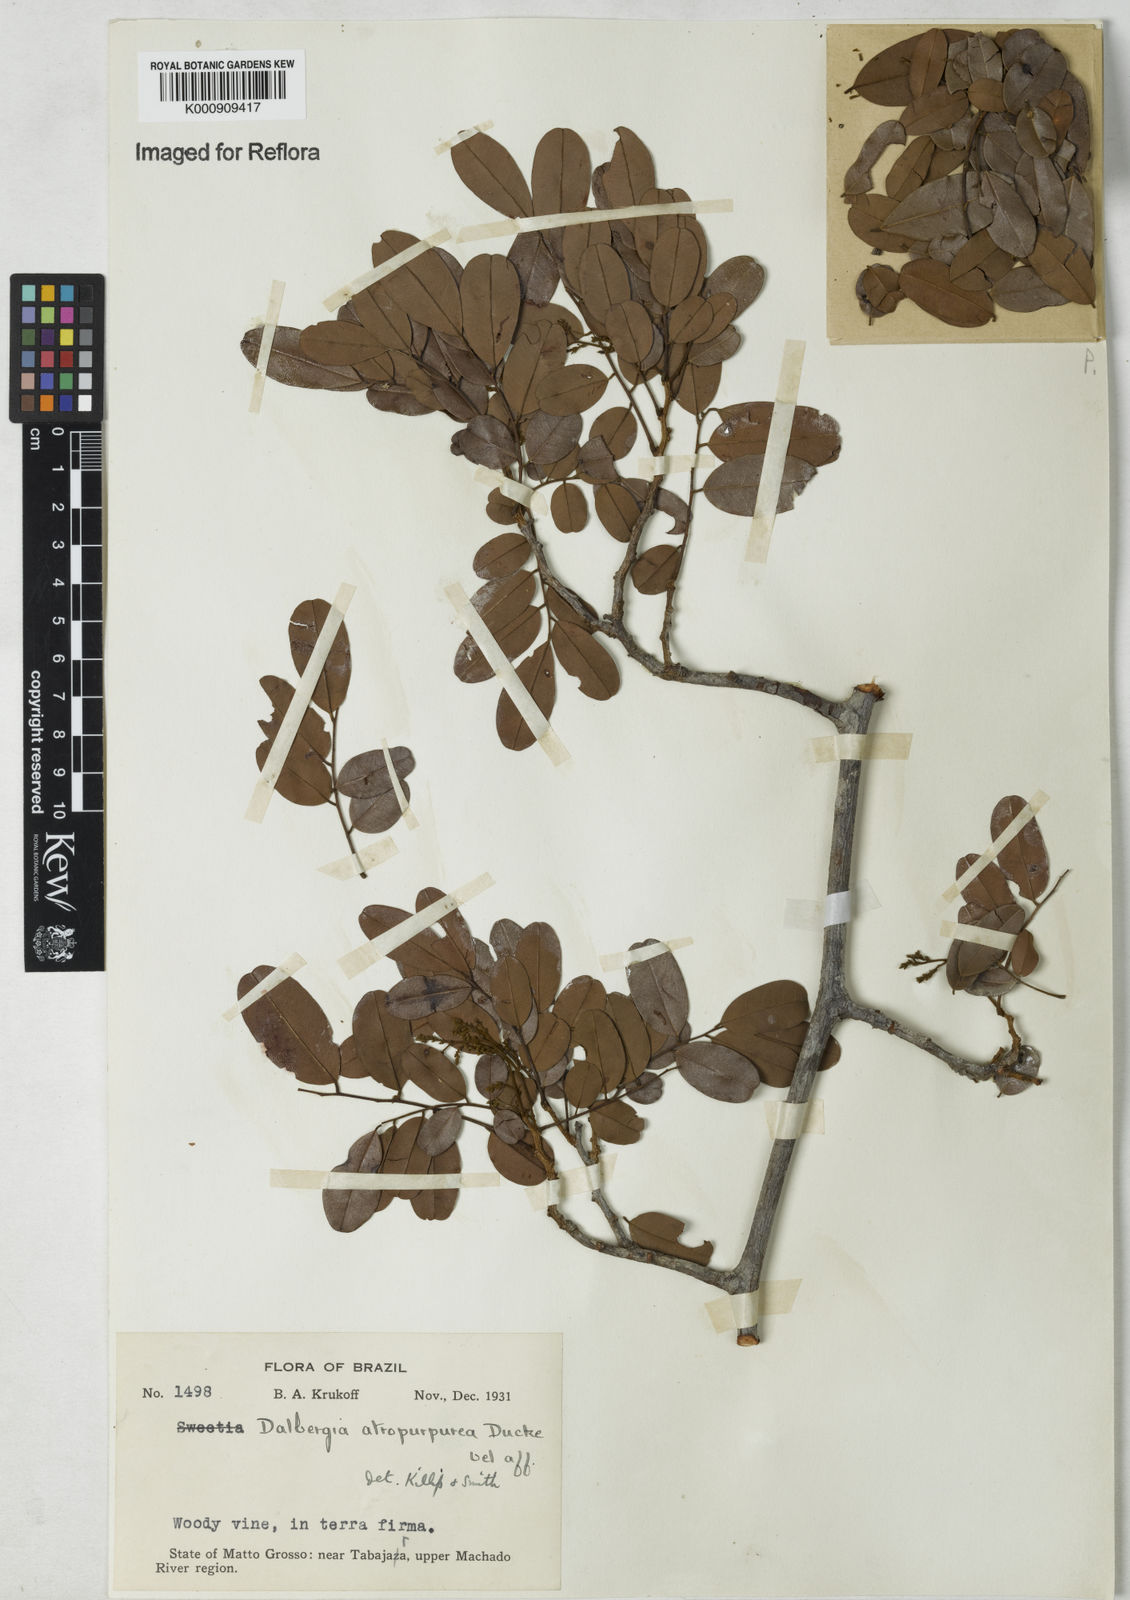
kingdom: Plantae
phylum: Tracheophyta
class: Magnoliopsida
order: Fabales
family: Fabaceae
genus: Dalbergia
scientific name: Dalbergia
